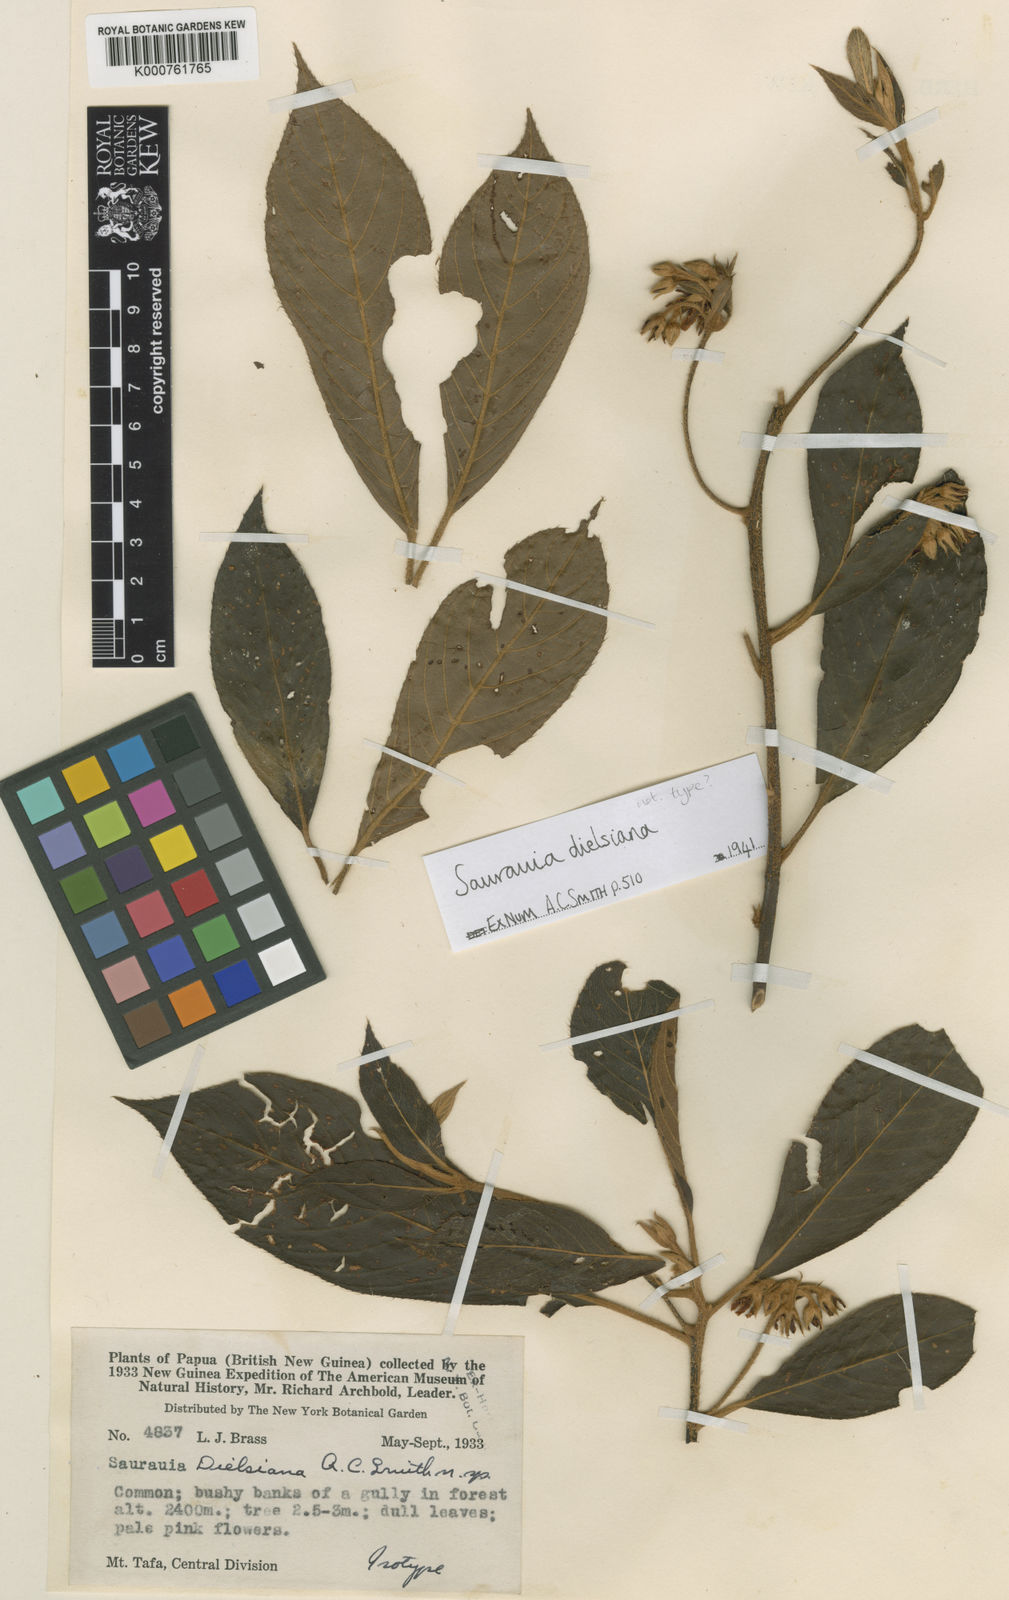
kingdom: Plantae
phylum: Tracheophyta
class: Magnoliopsida
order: Ericales
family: Actinidiaceae
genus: Saurauia
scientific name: Saurauia dielsiana
